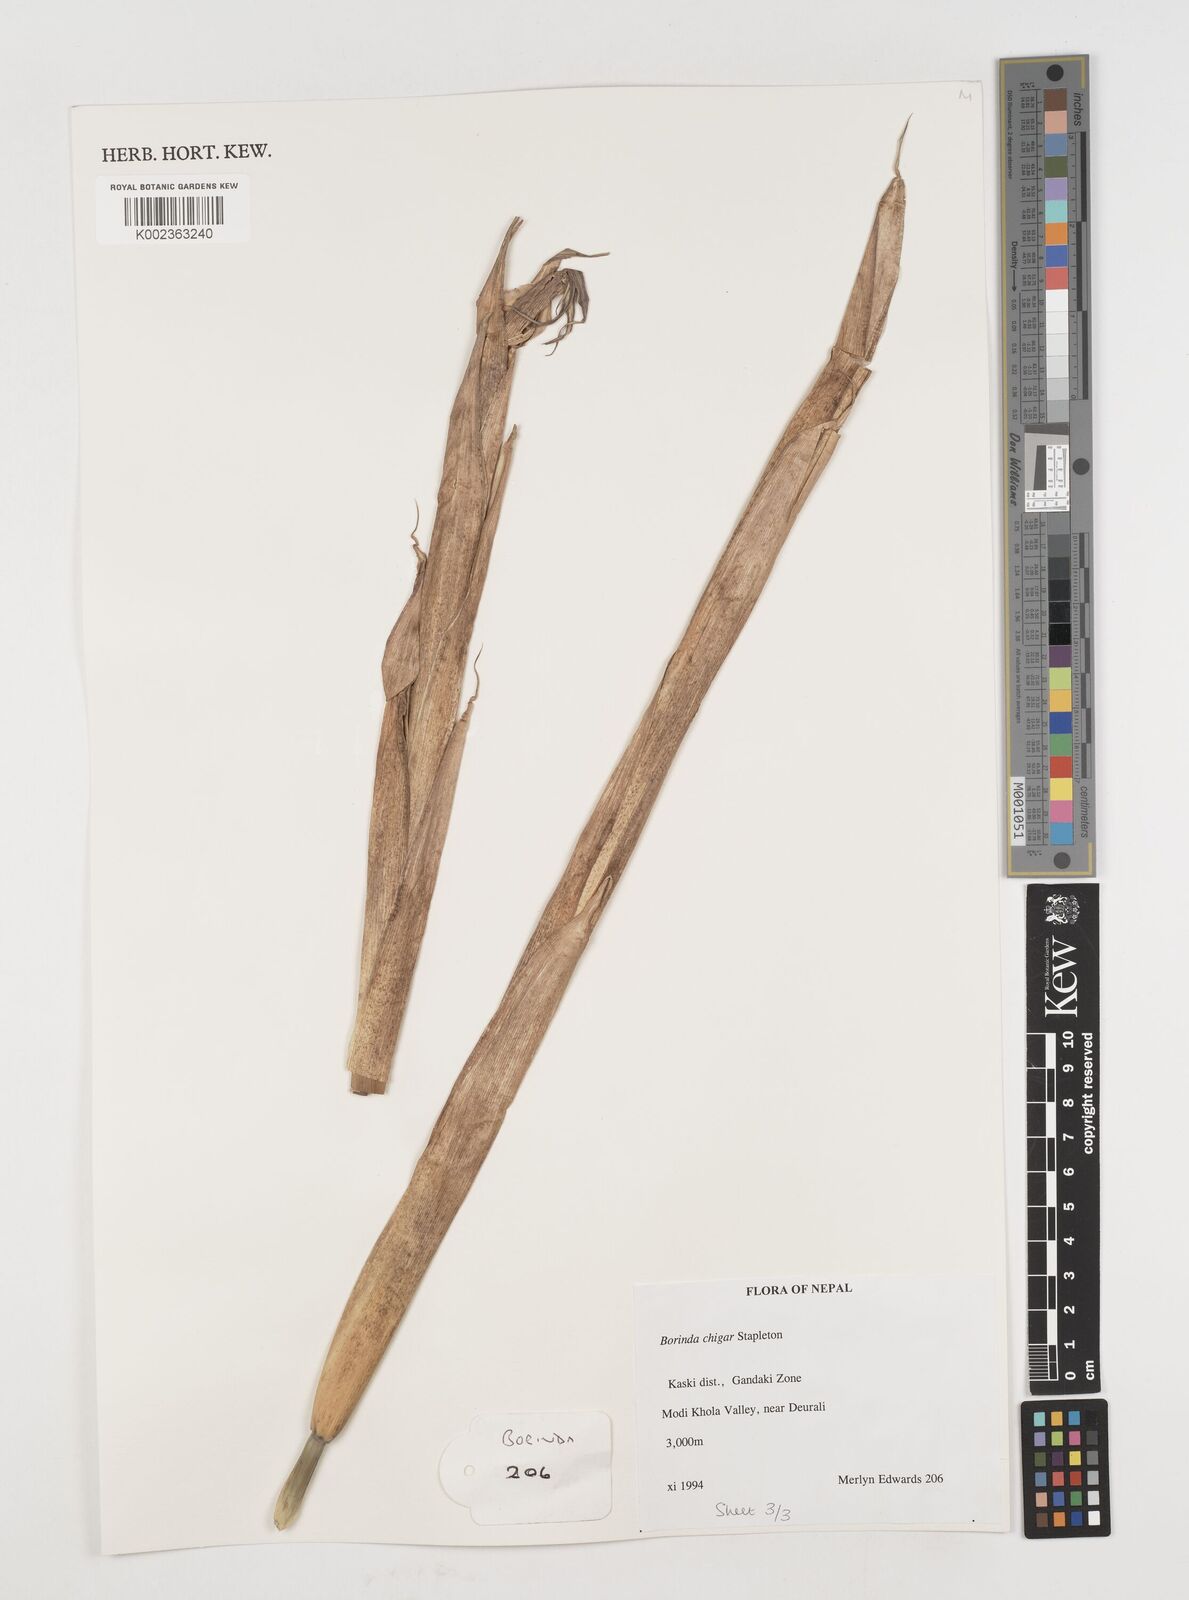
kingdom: Plantae
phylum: Tracheophyta
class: Liliopsida
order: Poales
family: Poaceae
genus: Fargesia
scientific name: Fargesia
